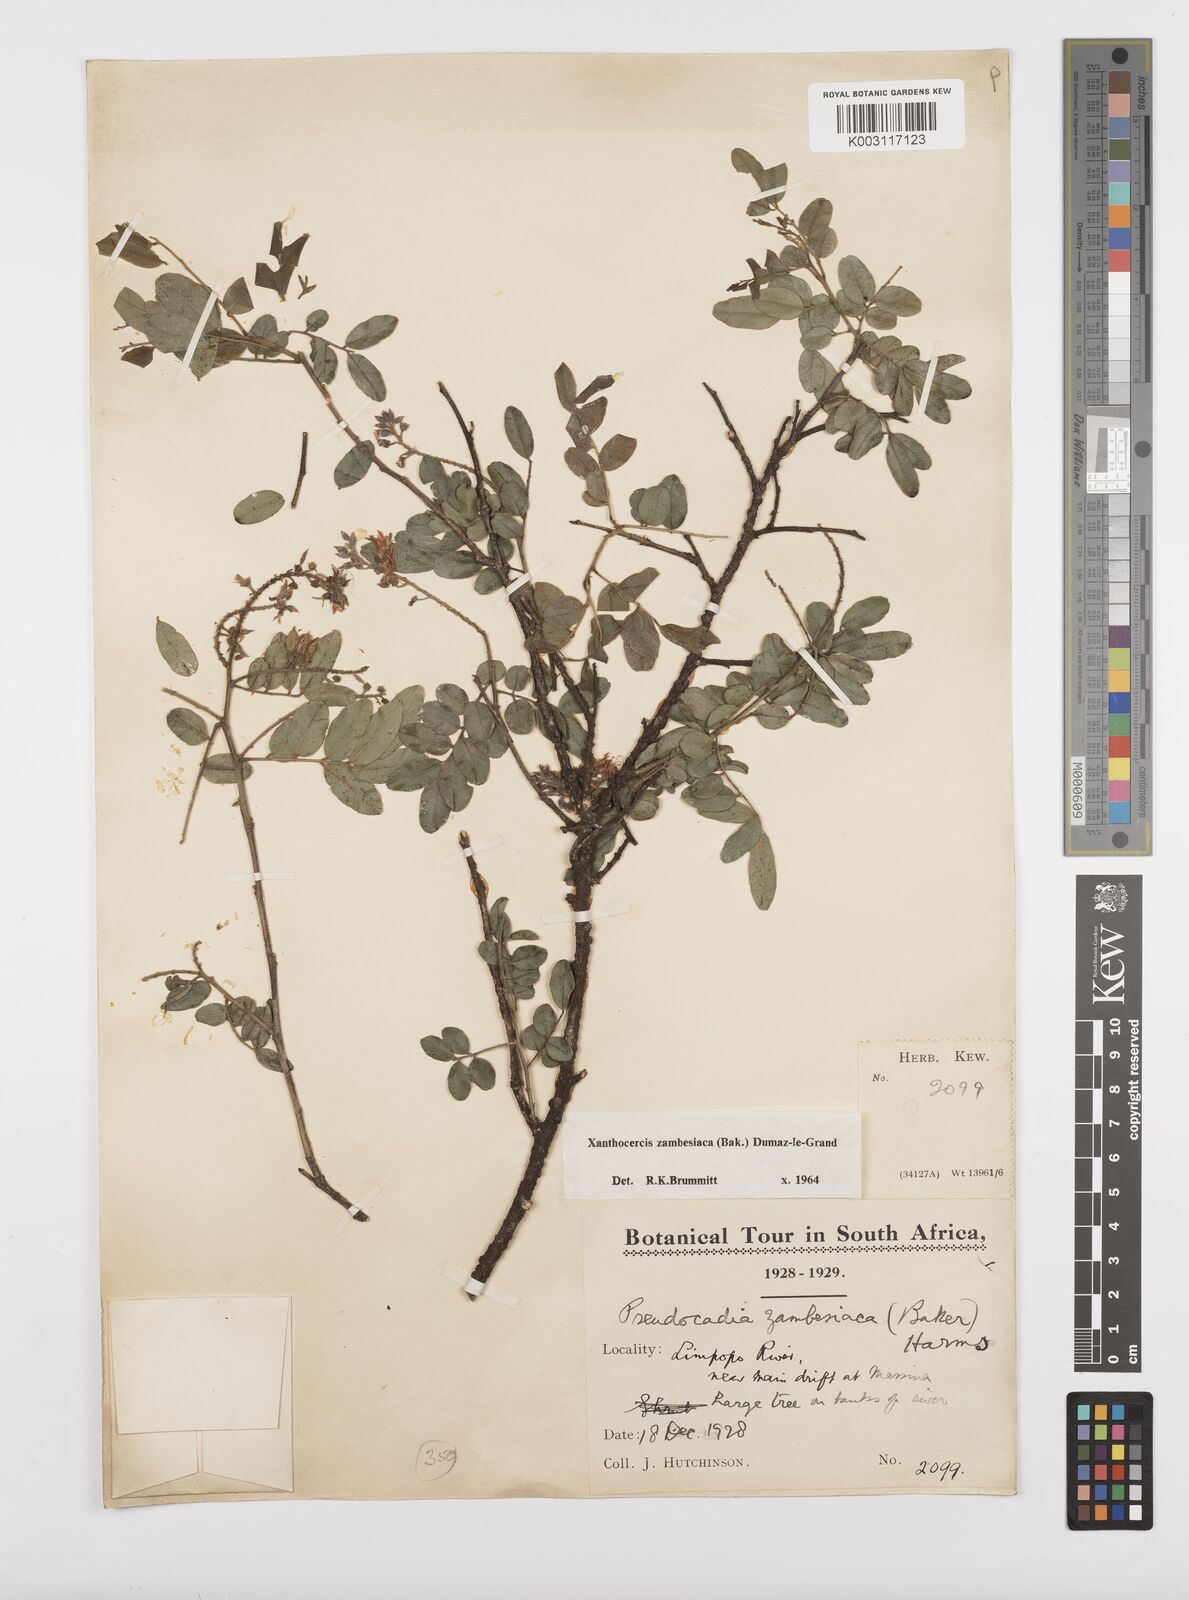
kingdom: Plantae
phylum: Tracheophyta
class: Magnoliopsida
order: Fabales
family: Fabaceae
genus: Xanthocercis
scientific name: Xanthocercis zambesiaca
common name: Nyala-tree
